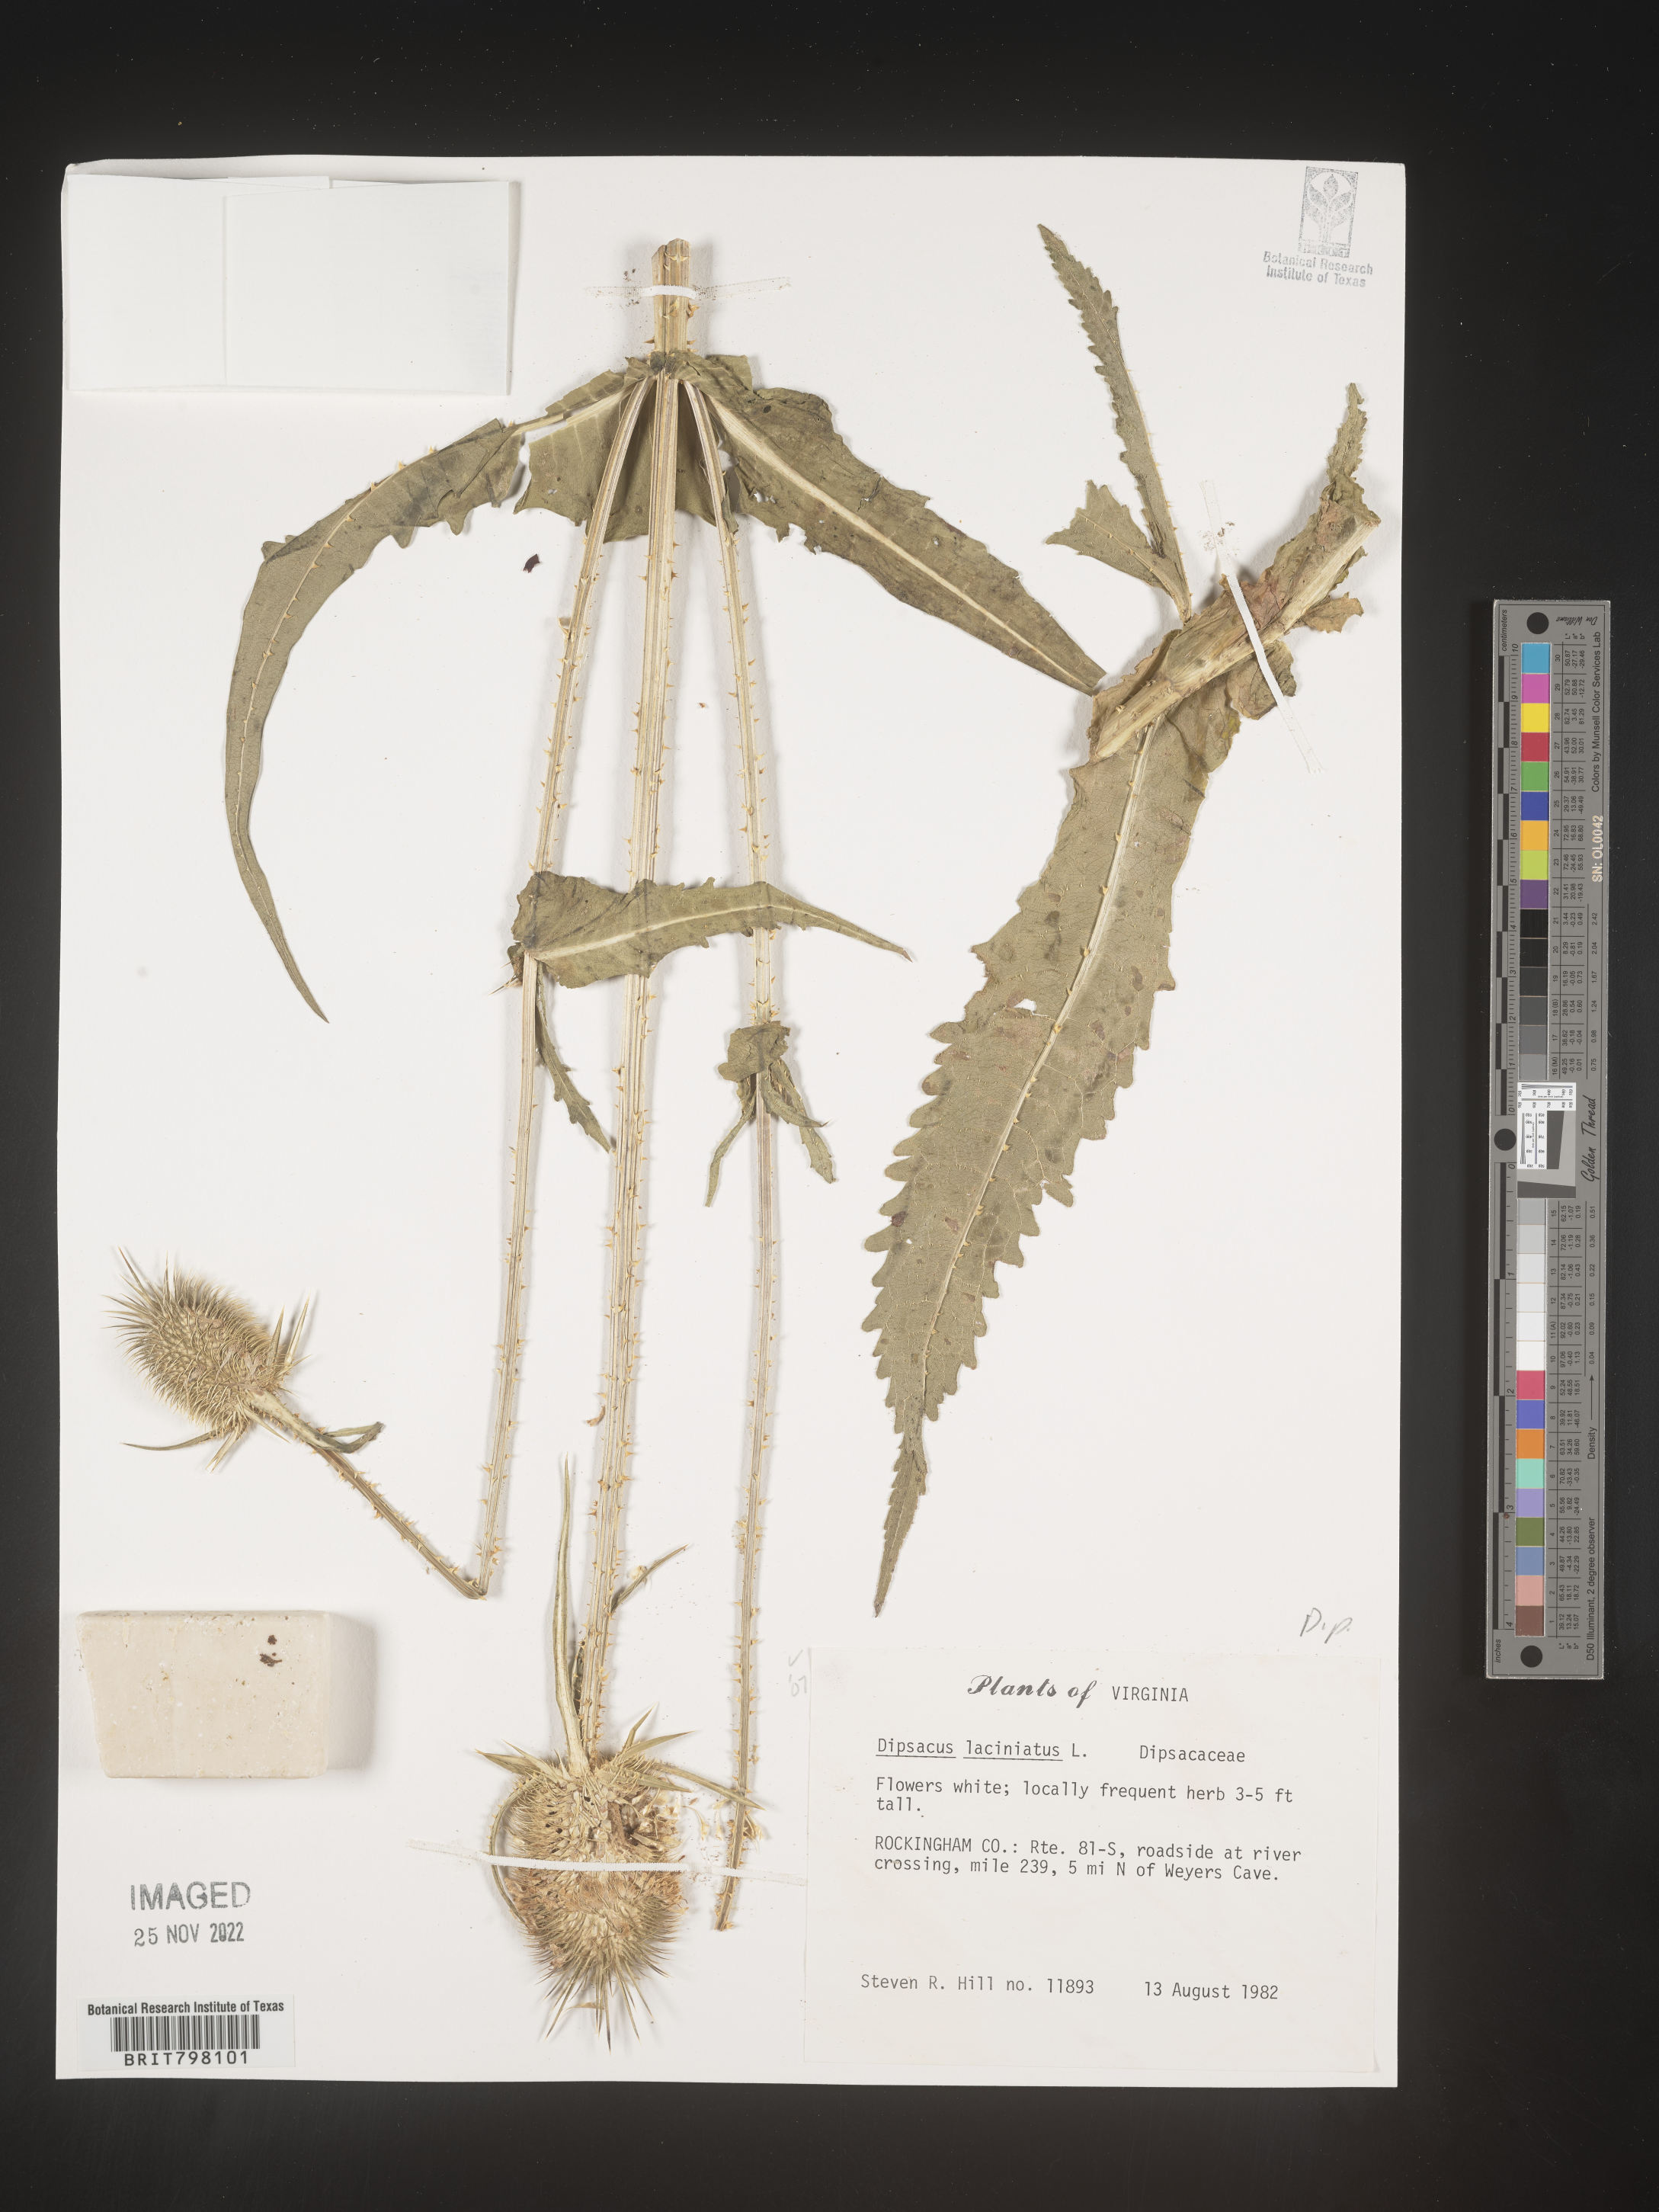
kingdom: Plantae
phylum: Tracheophyta
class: Magnoliopsida
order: Dipsacales
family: Caprifoliaceae
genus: Dipsacus
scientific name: Dipsacus
